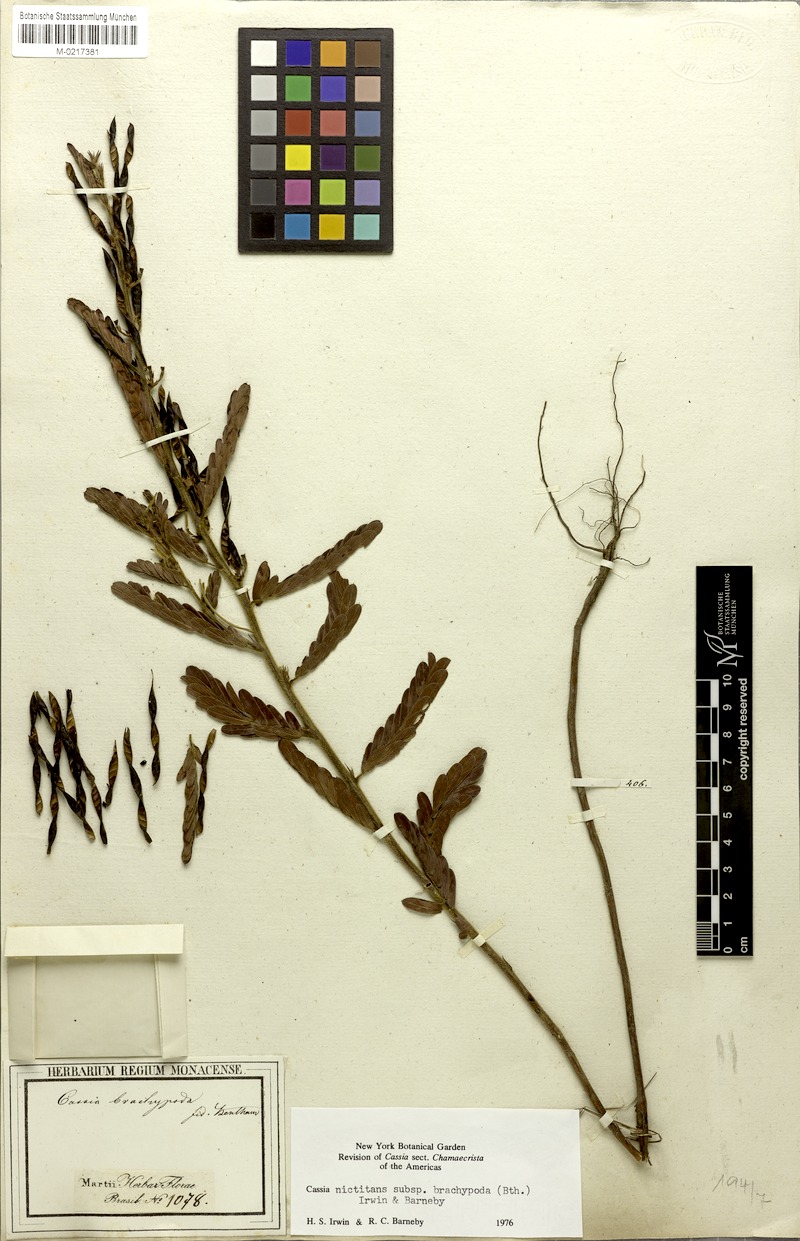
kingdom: Plantae
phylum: Tracheophyta
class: Magnoliopsida
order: Fabales
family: Fabaceae
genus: Chamaecrista
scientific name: Chamaecrista nictitans
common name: Sensitive cassia
